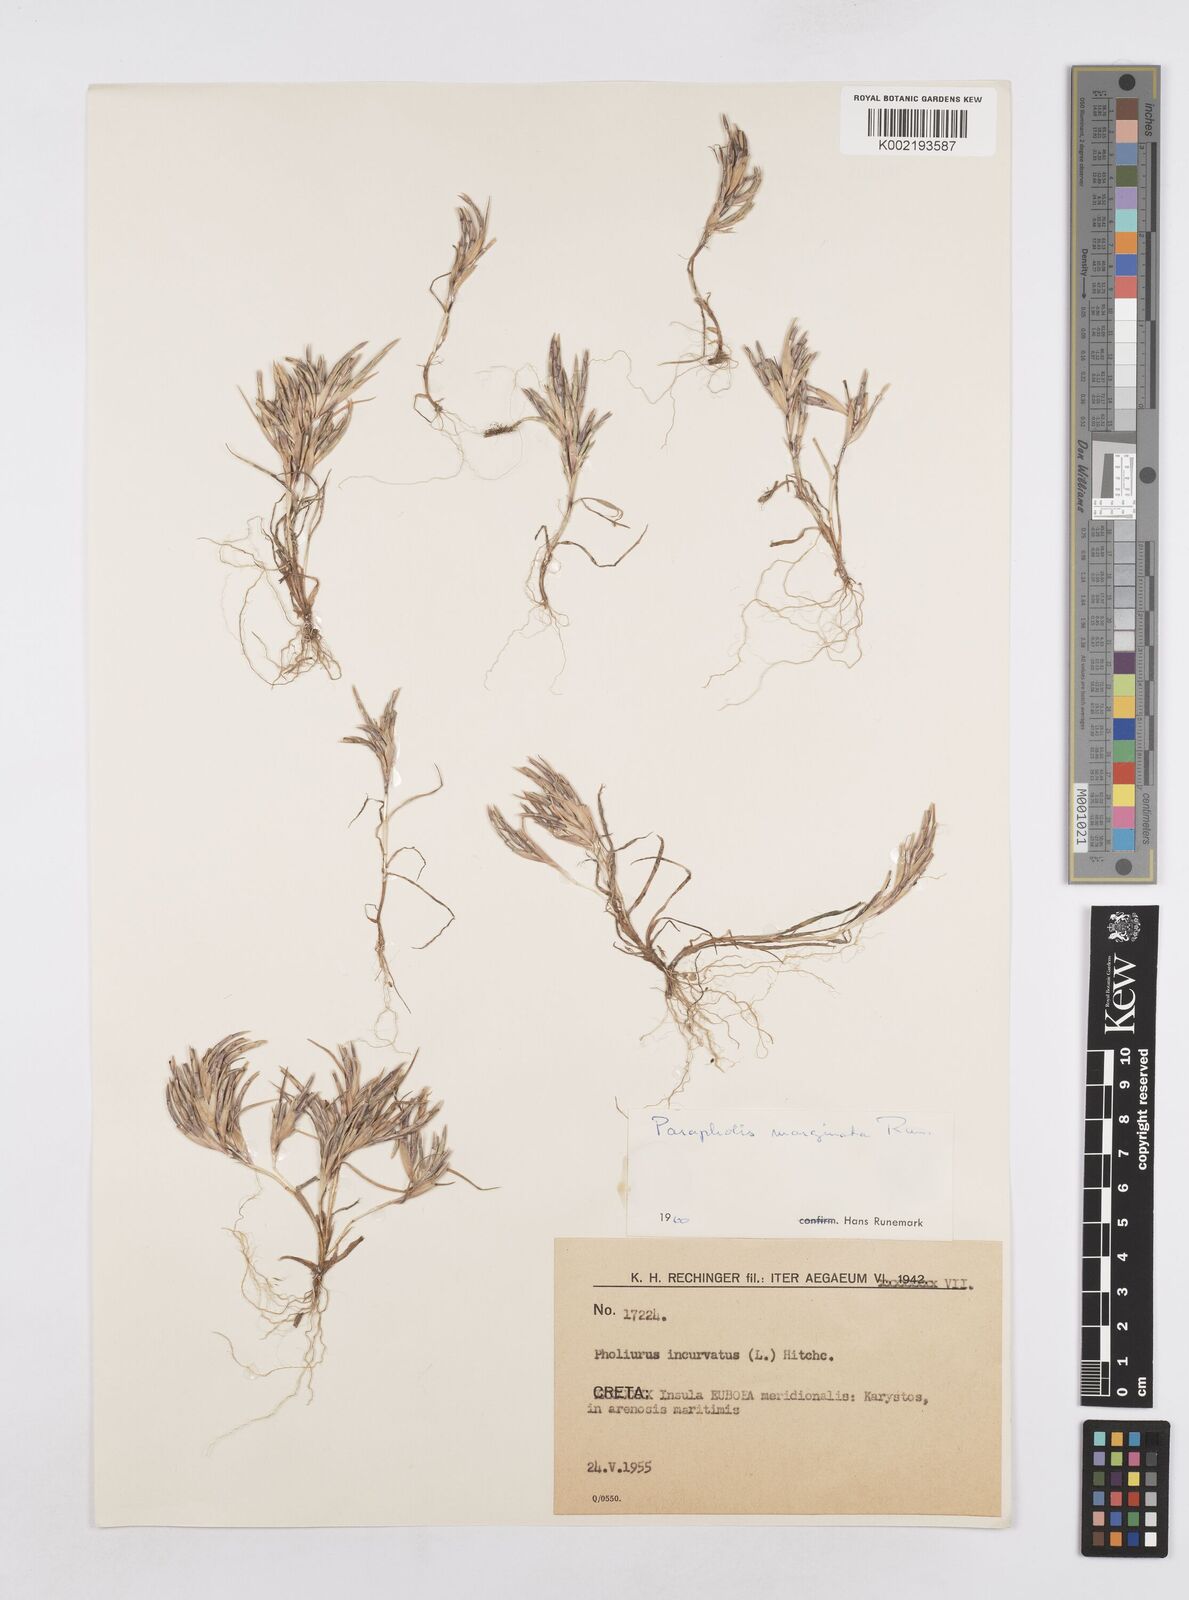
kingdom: Plantae
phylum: Tracheophyta
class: Liliopsida
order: Poales
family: Poaceae
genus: Parapholis
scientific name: Parapholis marginata
